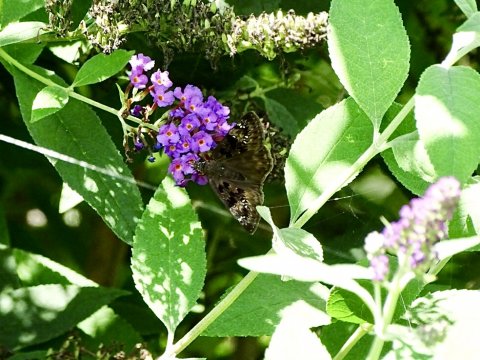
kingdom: Animalia
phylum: Arthropoda
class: Insecta
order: Lepidoptera
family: Hesperiidae
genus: Gesta
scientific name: Gesta
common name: Horace's Duskywing
